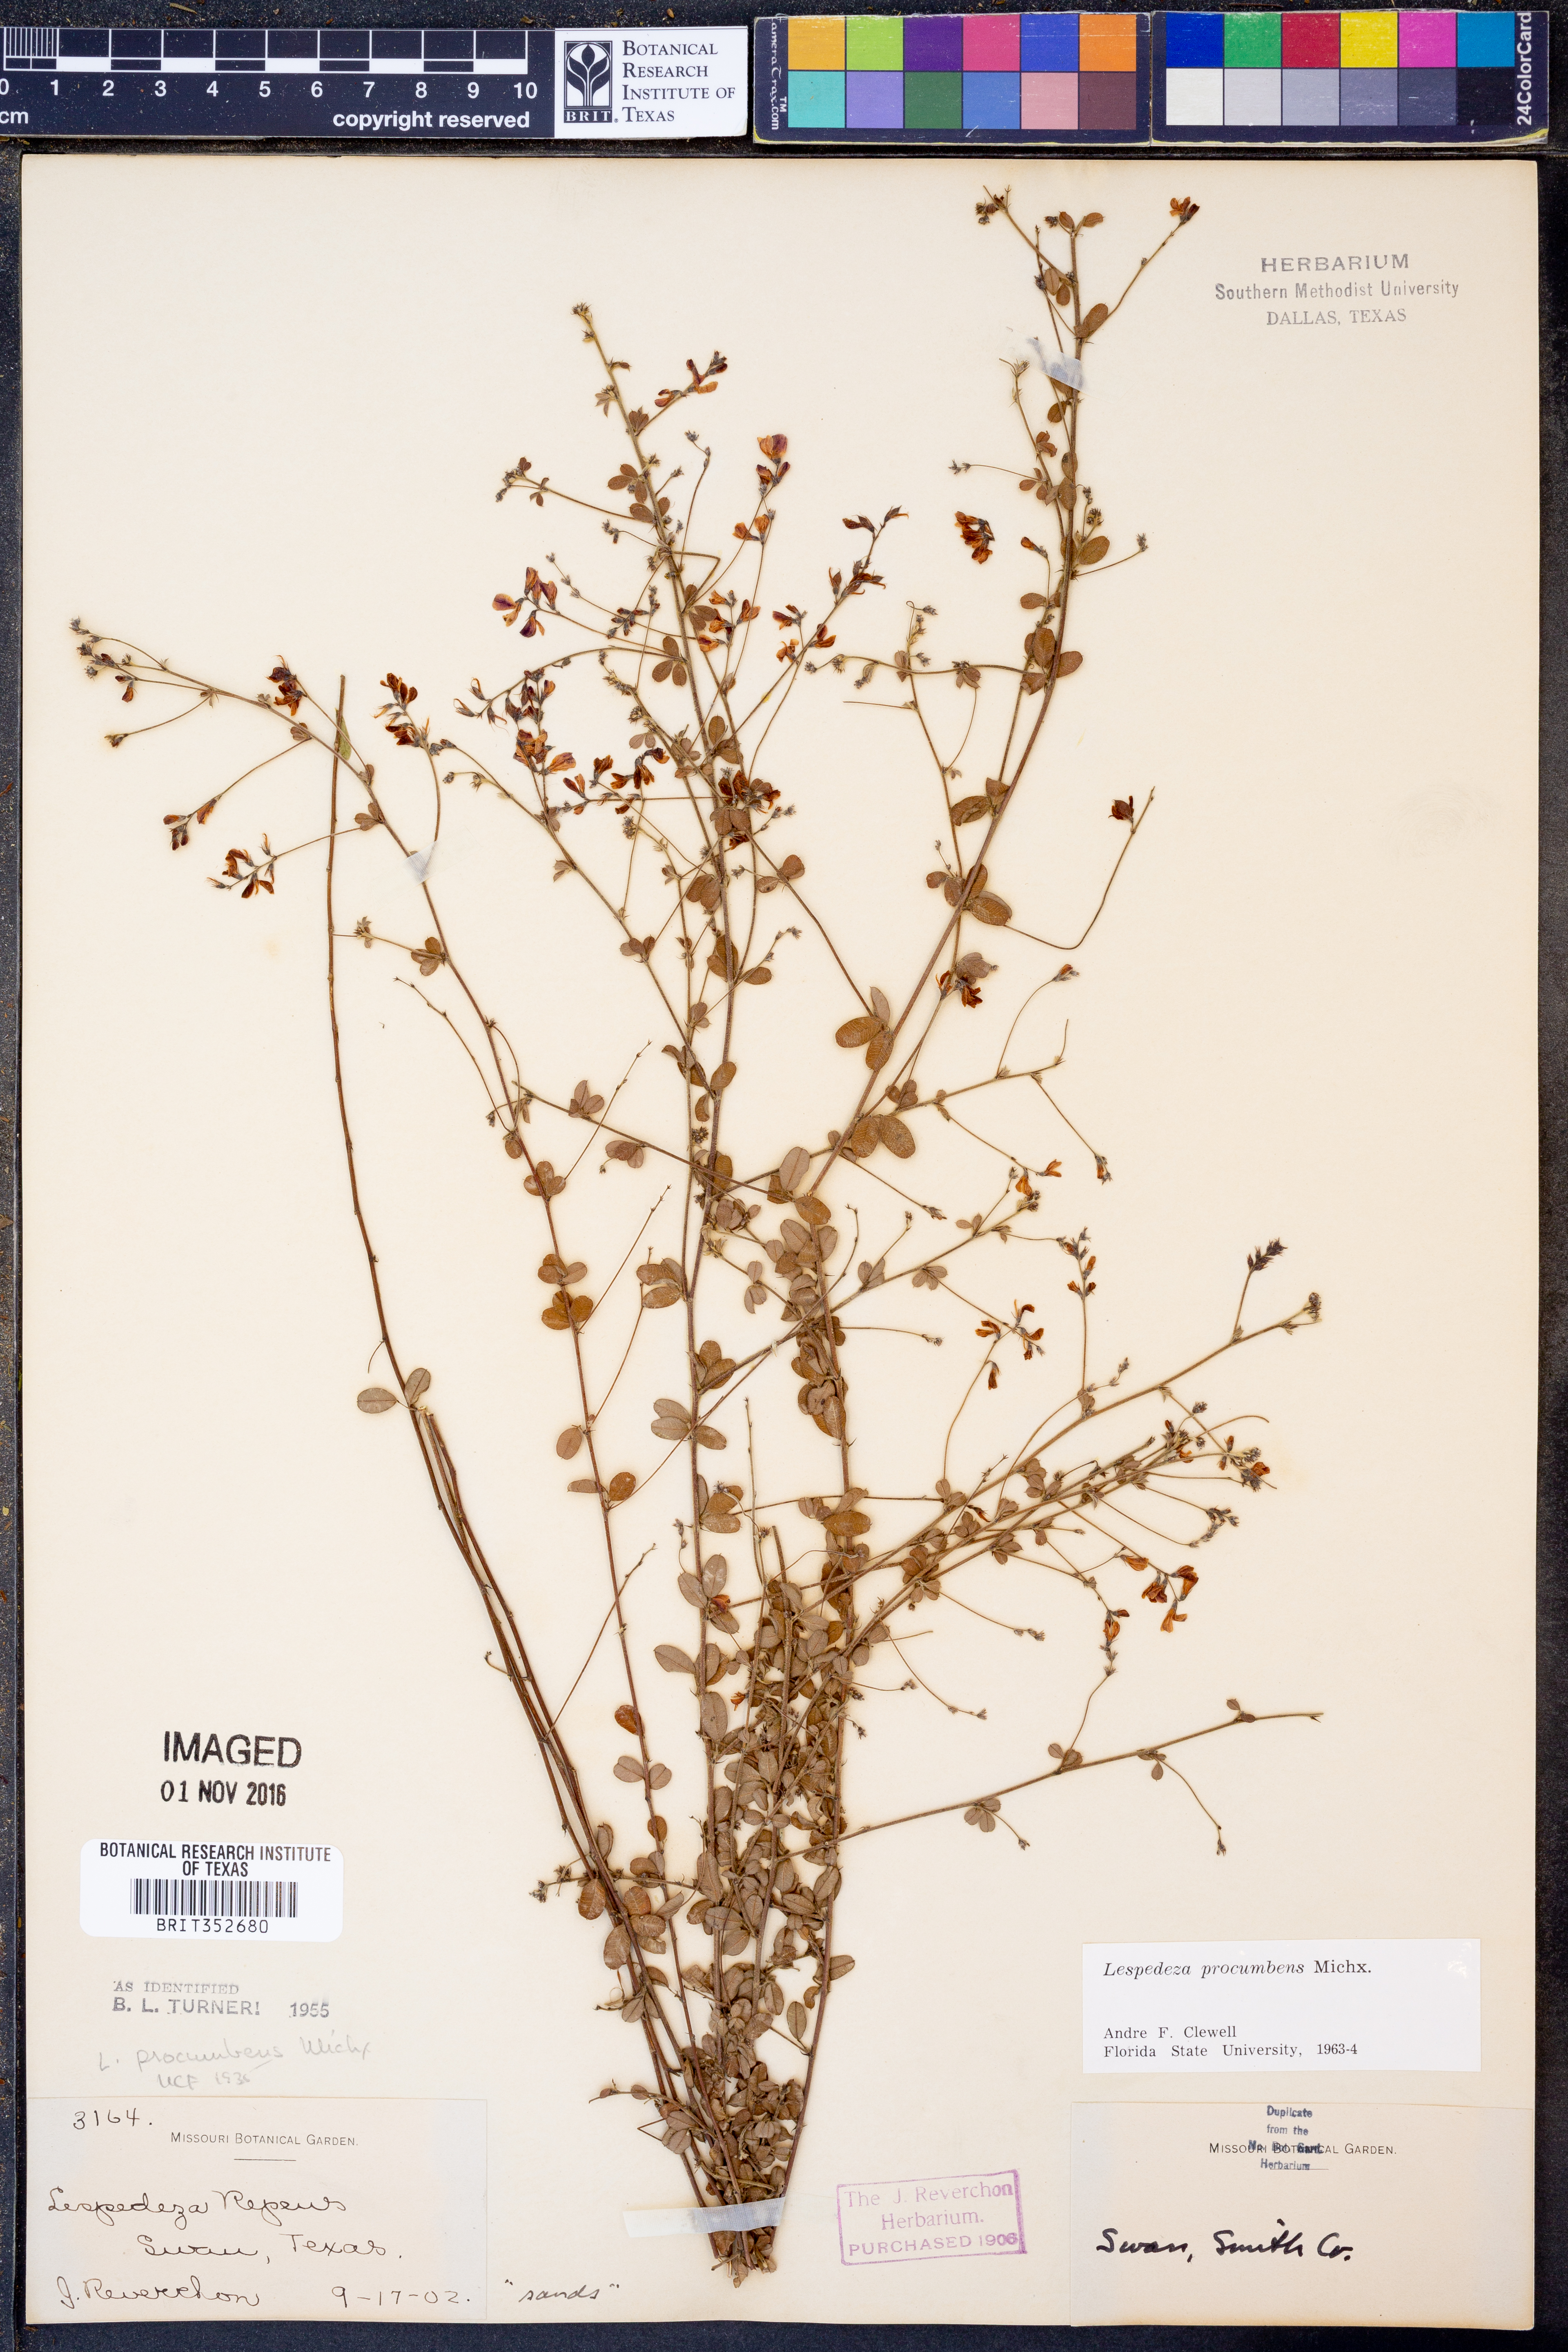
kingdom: Plantae
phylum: Tracheophyta
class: Magnoliopsida
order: Fabales
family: Fabaceae
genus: Lespedeza
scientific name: Lespedeza procumbens
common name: Downy trailing bush-clover
